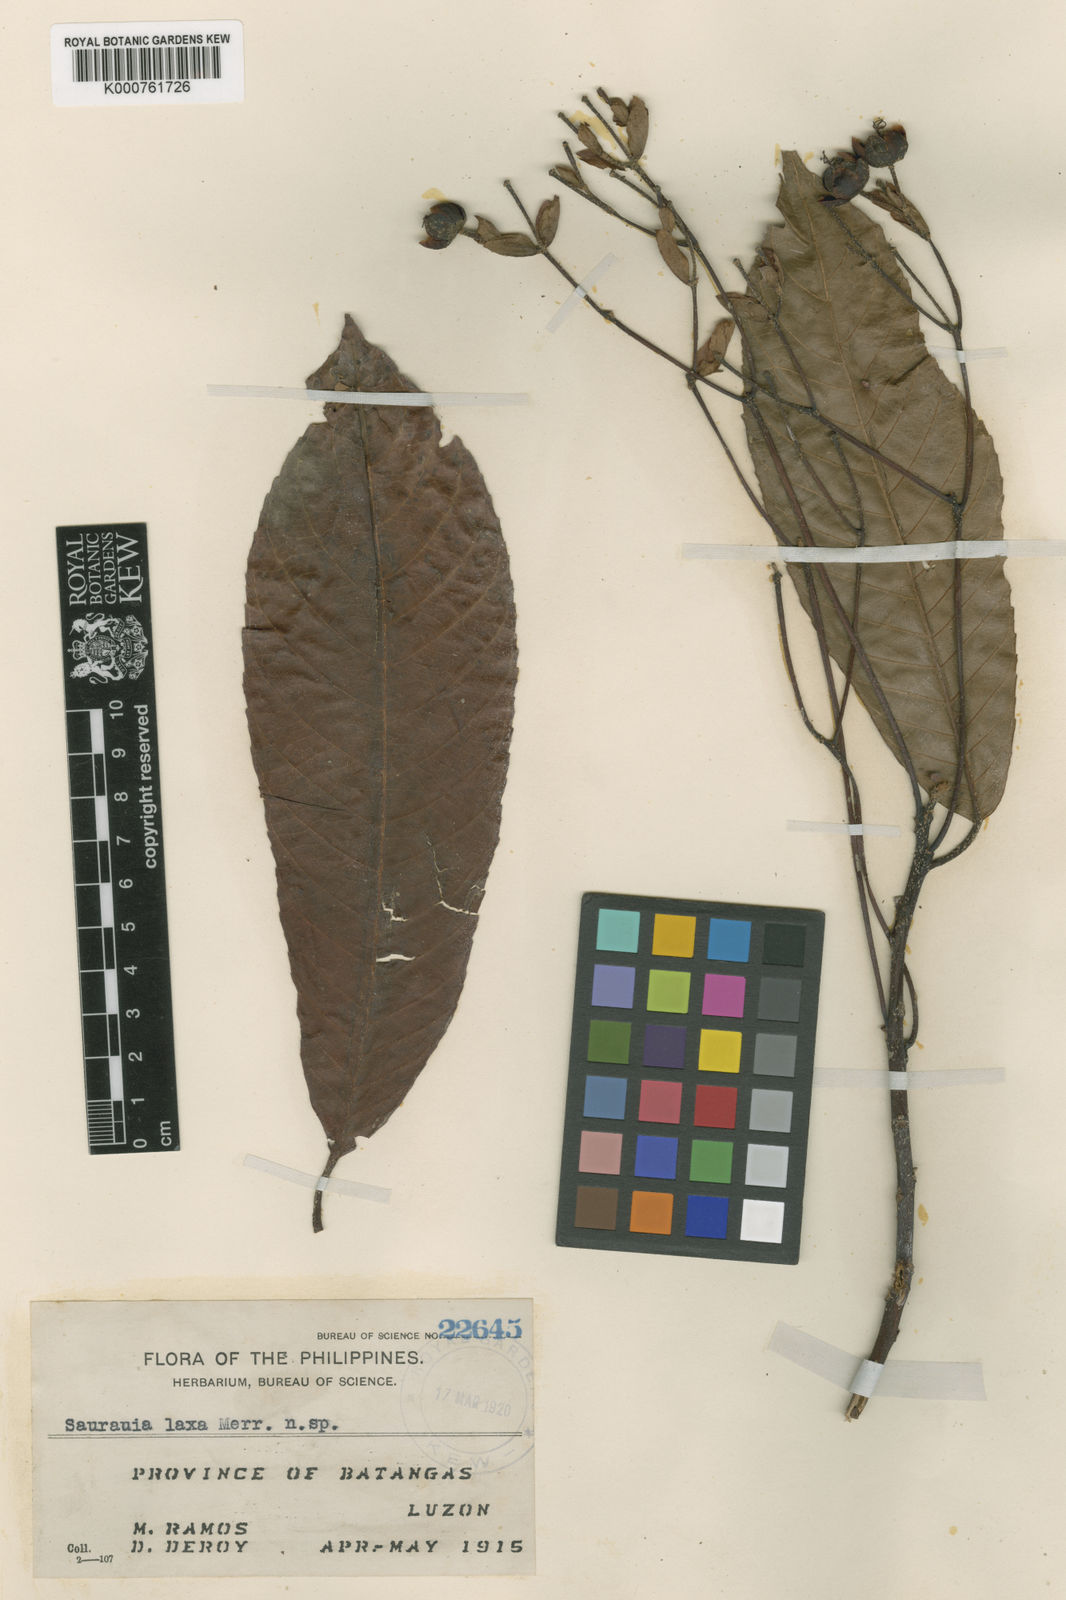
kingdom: Plantae
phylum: Tracheophyta
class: Magnoliopsida
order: Ericales
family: Actinidiaceae
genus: Saurauia
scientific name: Saurauia
